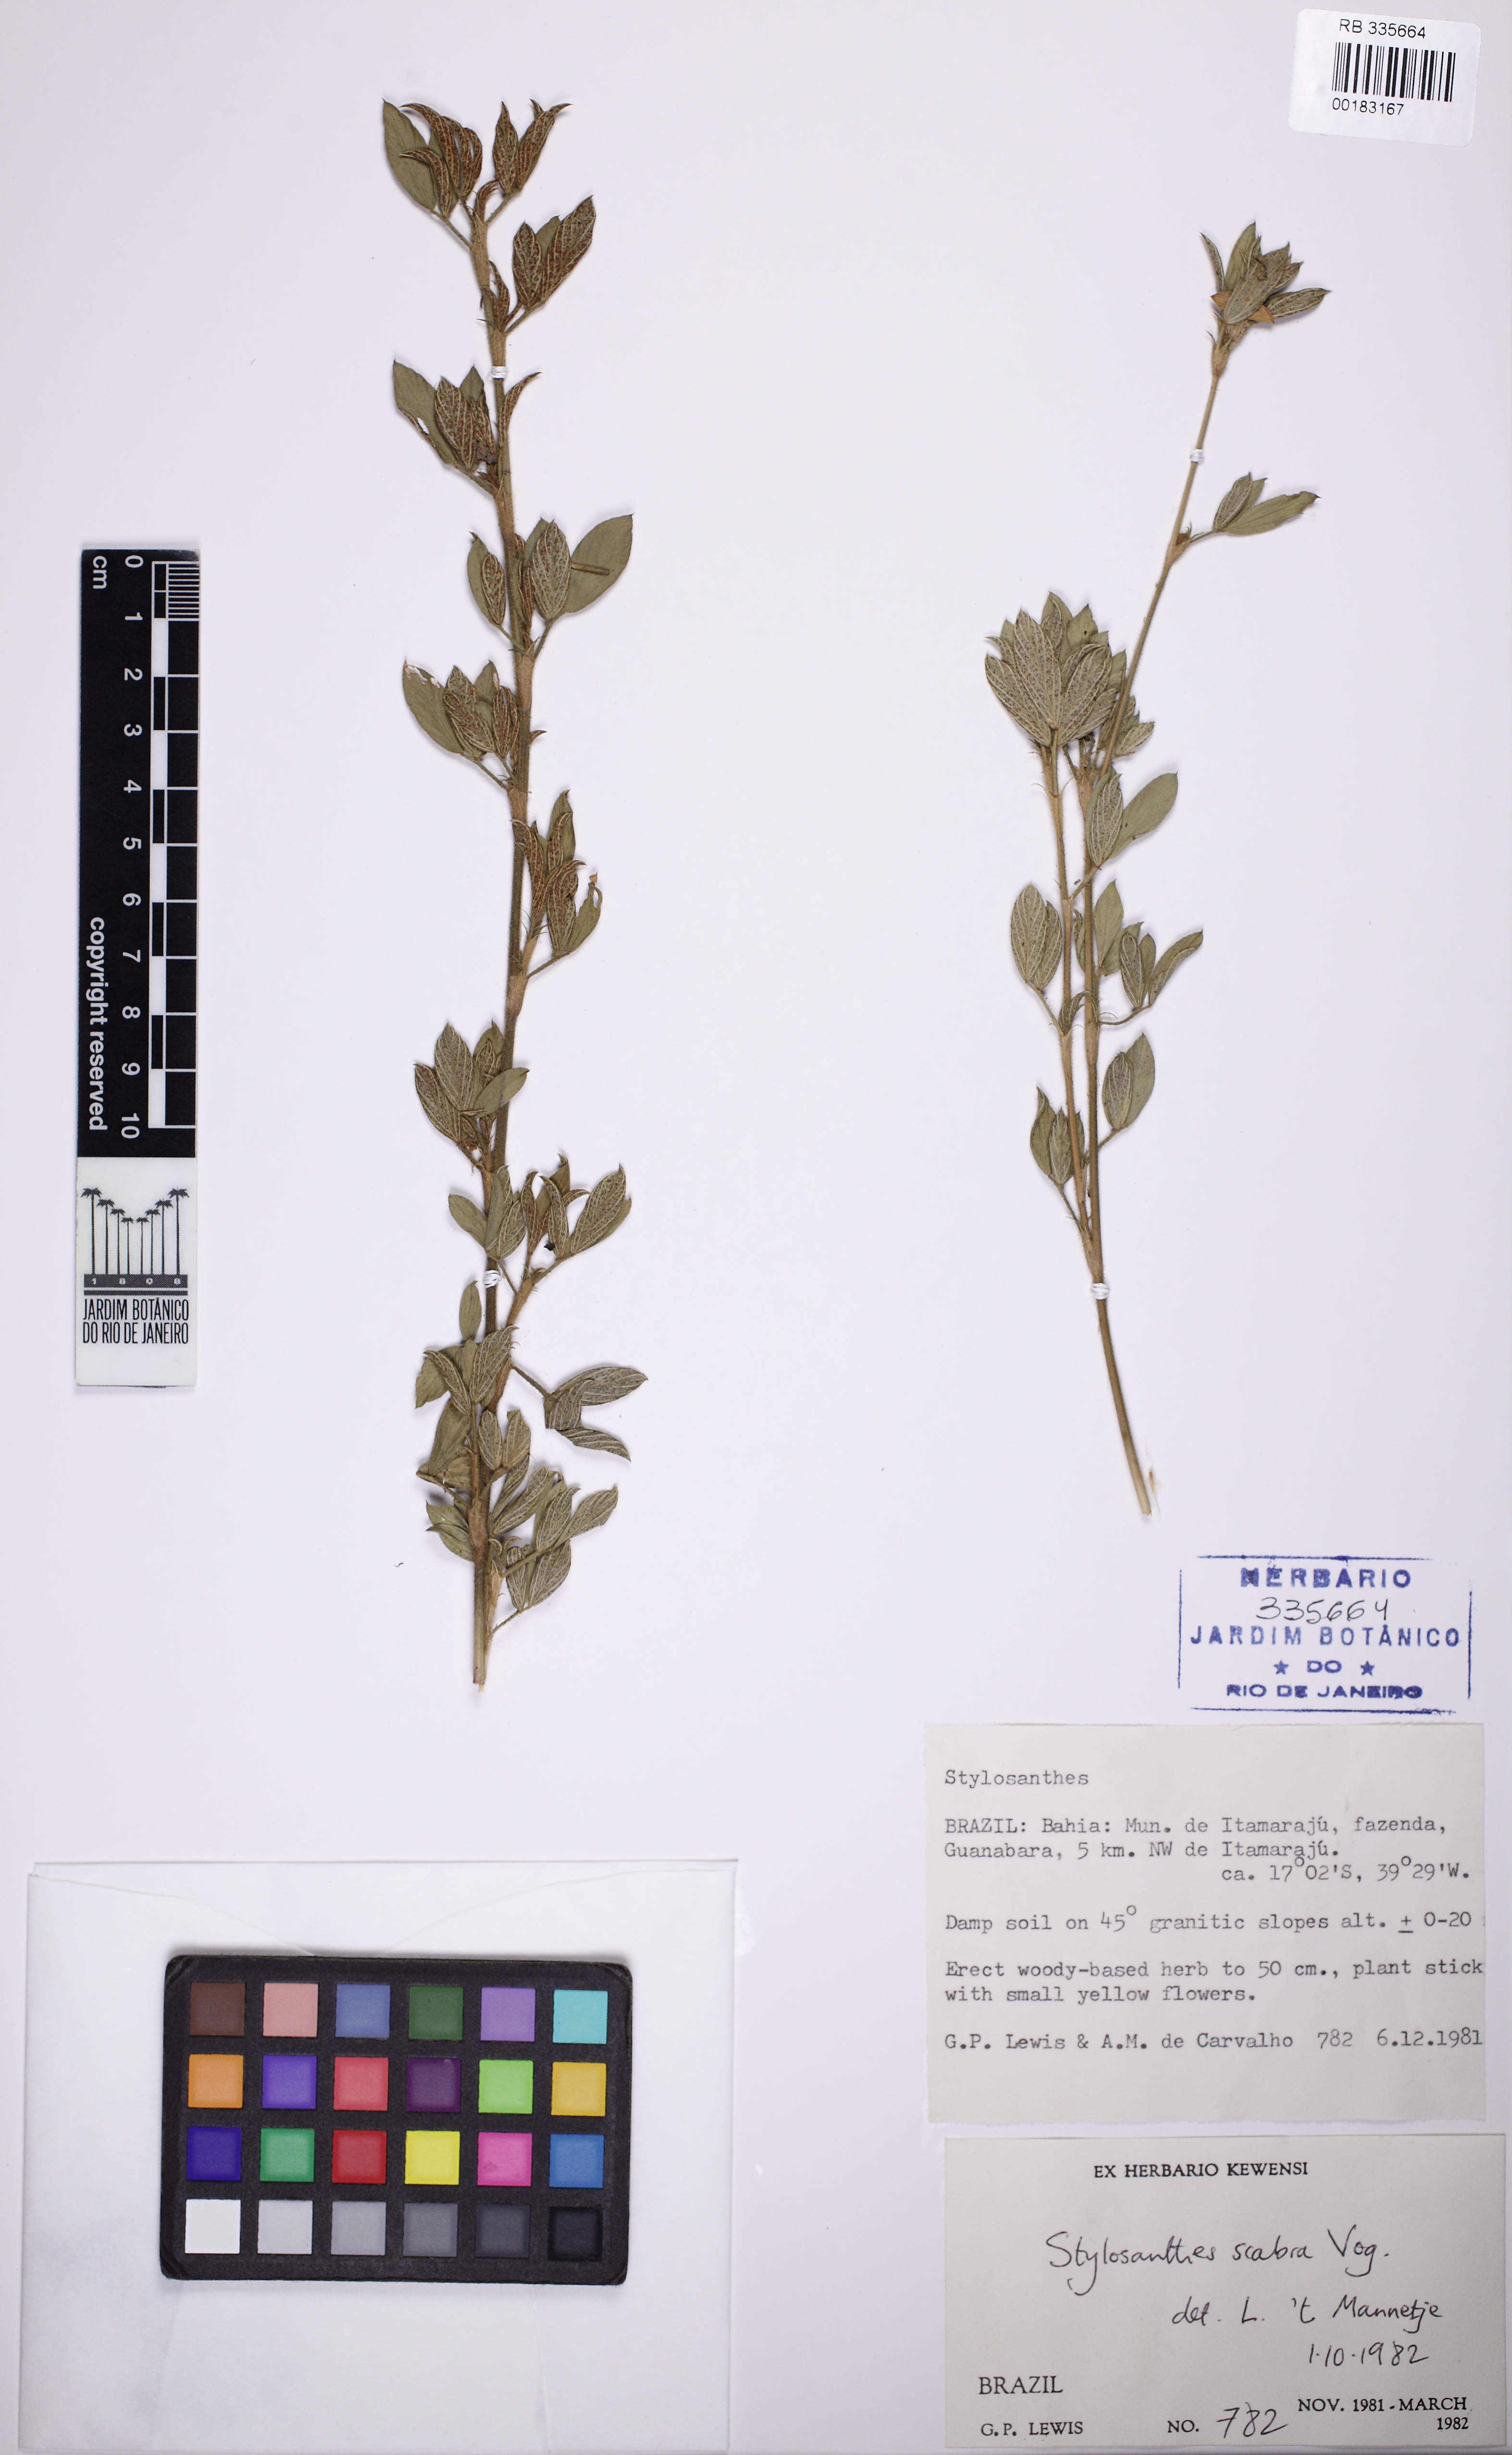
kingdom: Plantae
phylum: Tracheophyta
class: Magnoliopsida
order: Fabales
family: Fabaceae
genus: Stylosanthes
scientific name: Stylosanthes
